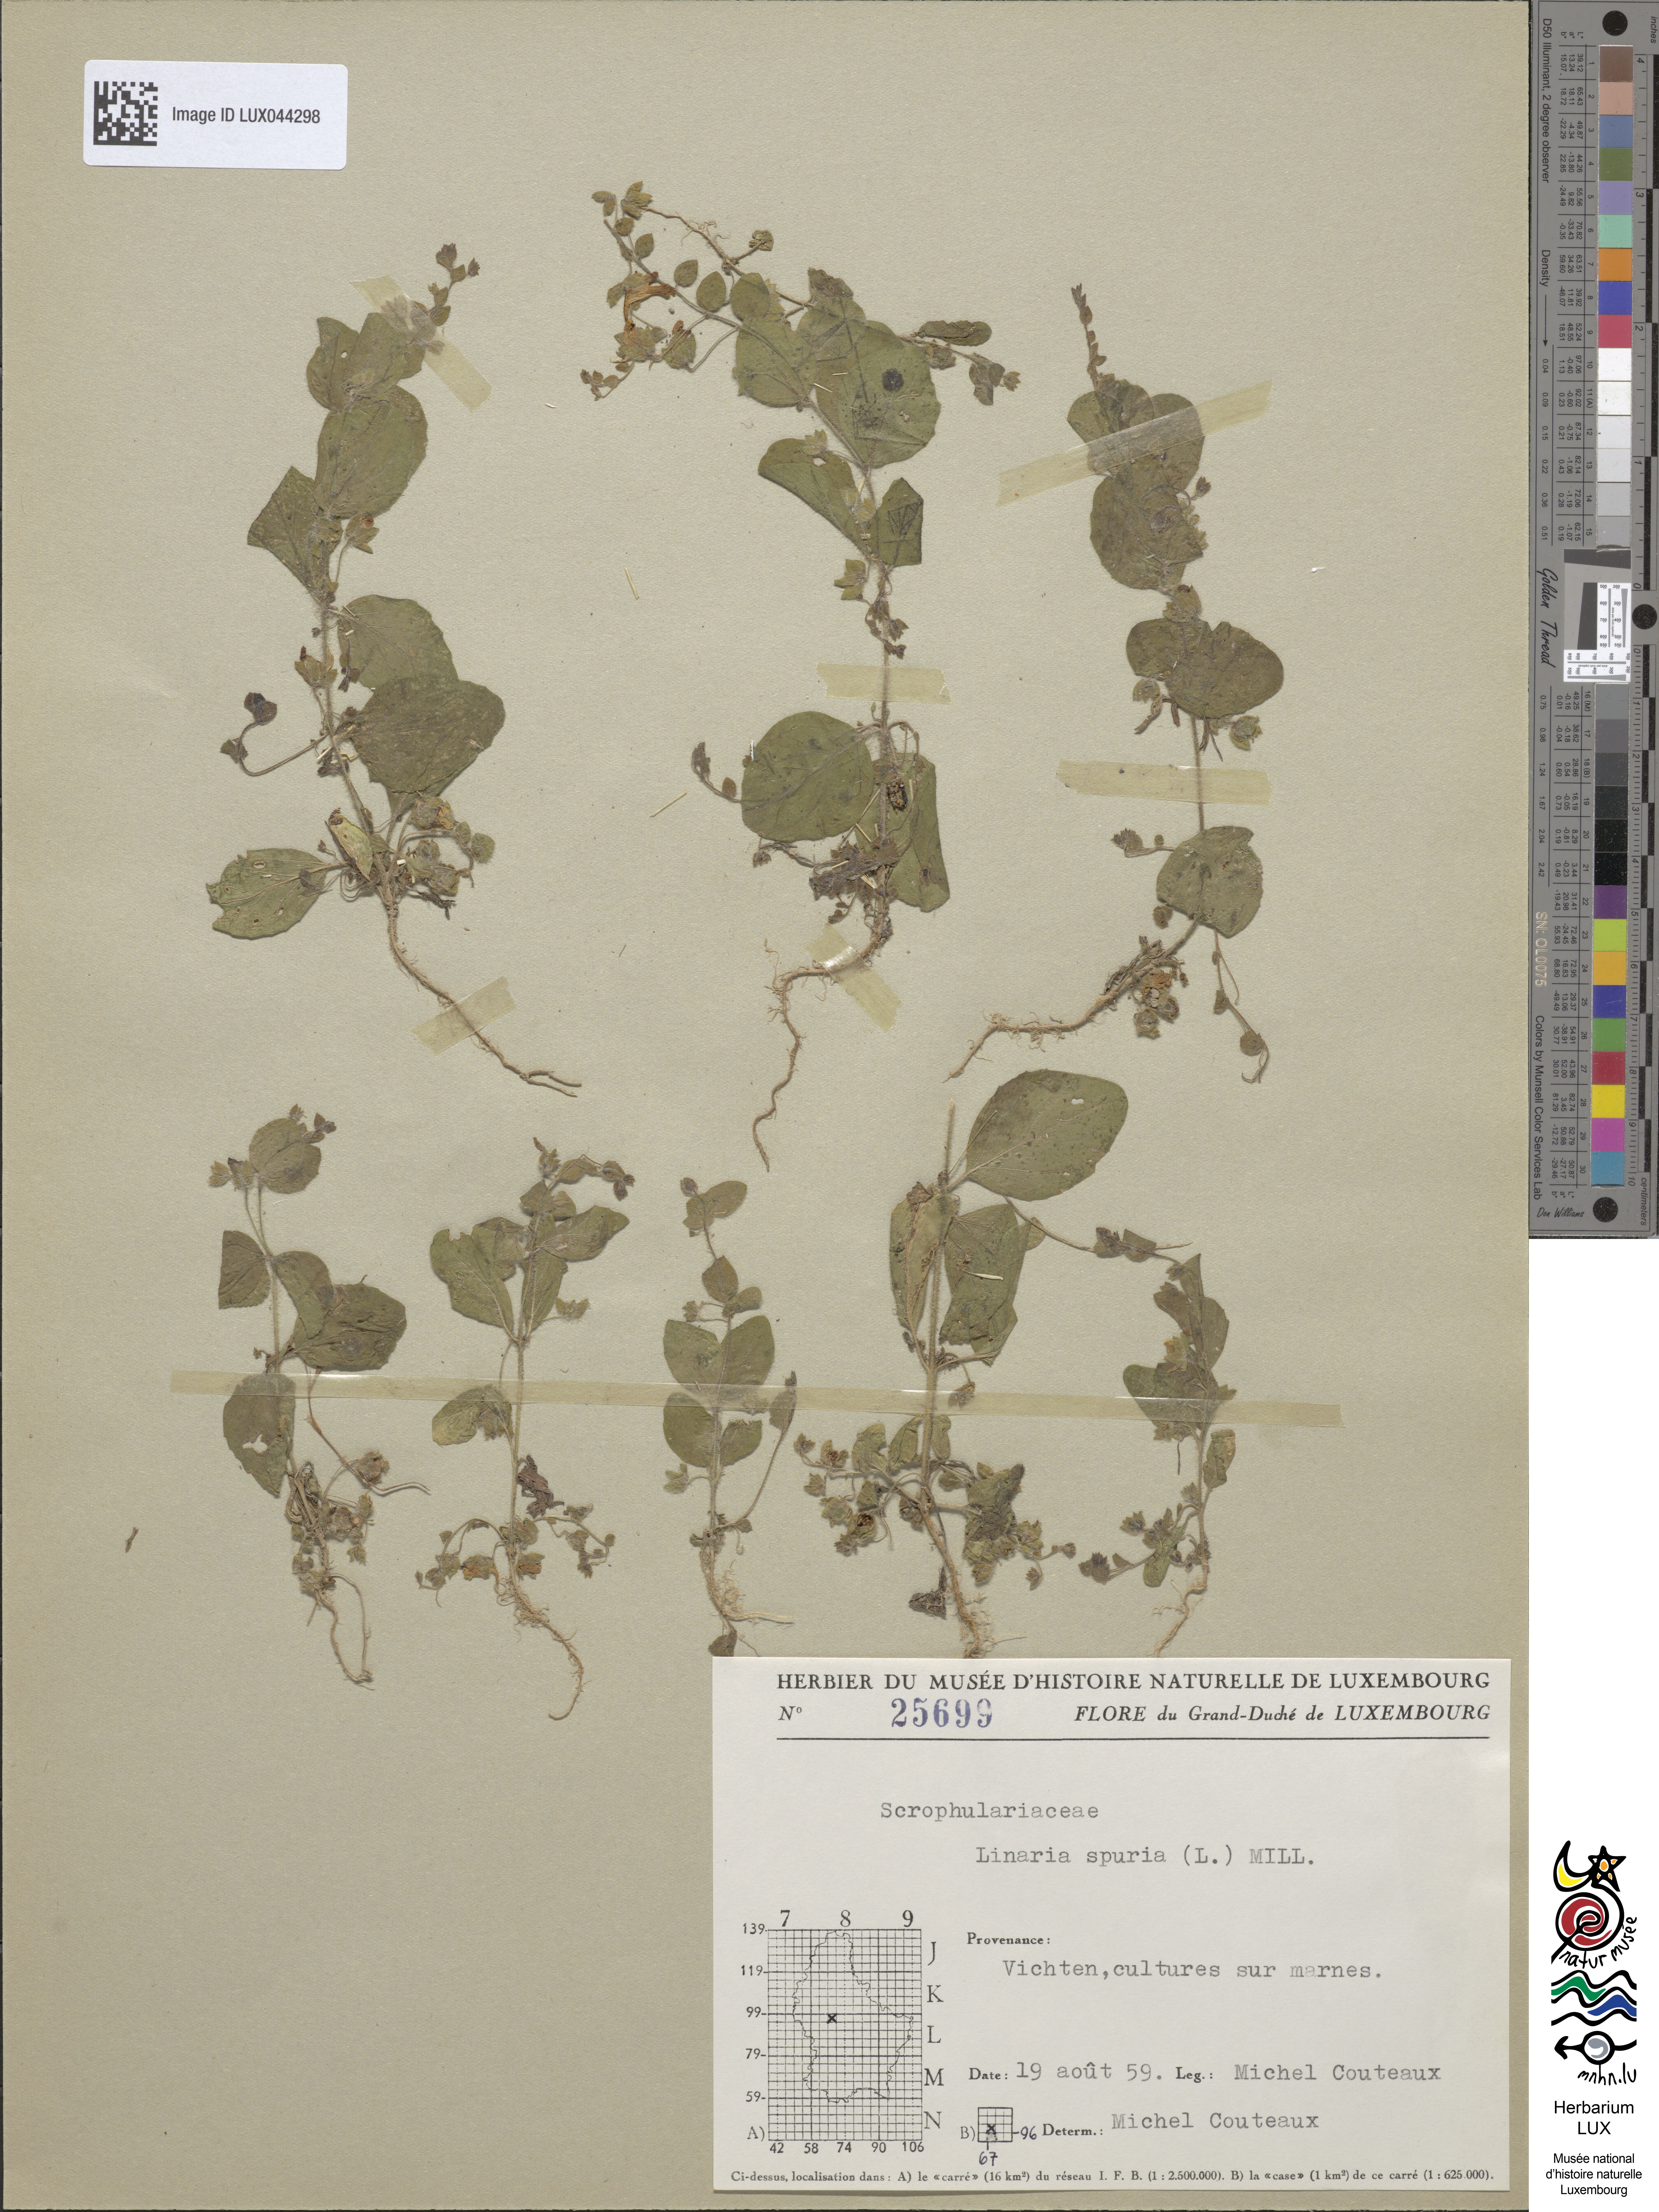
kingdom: Plantae
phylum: Tracheophyta
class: Magnoliopsida
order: Lamiales
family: Plantaginaceae
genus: Kickxia
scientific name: Kickxia spuria
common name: Round-leaved fluellen
